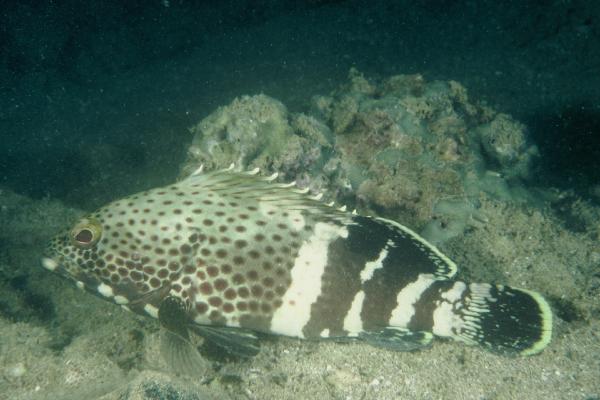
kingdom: Animalia
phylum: Chordata
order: Perciformes
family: Serranidae
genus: Epinephelus
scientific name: Epinephelus stoliczkae
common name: Epaulet grouper
